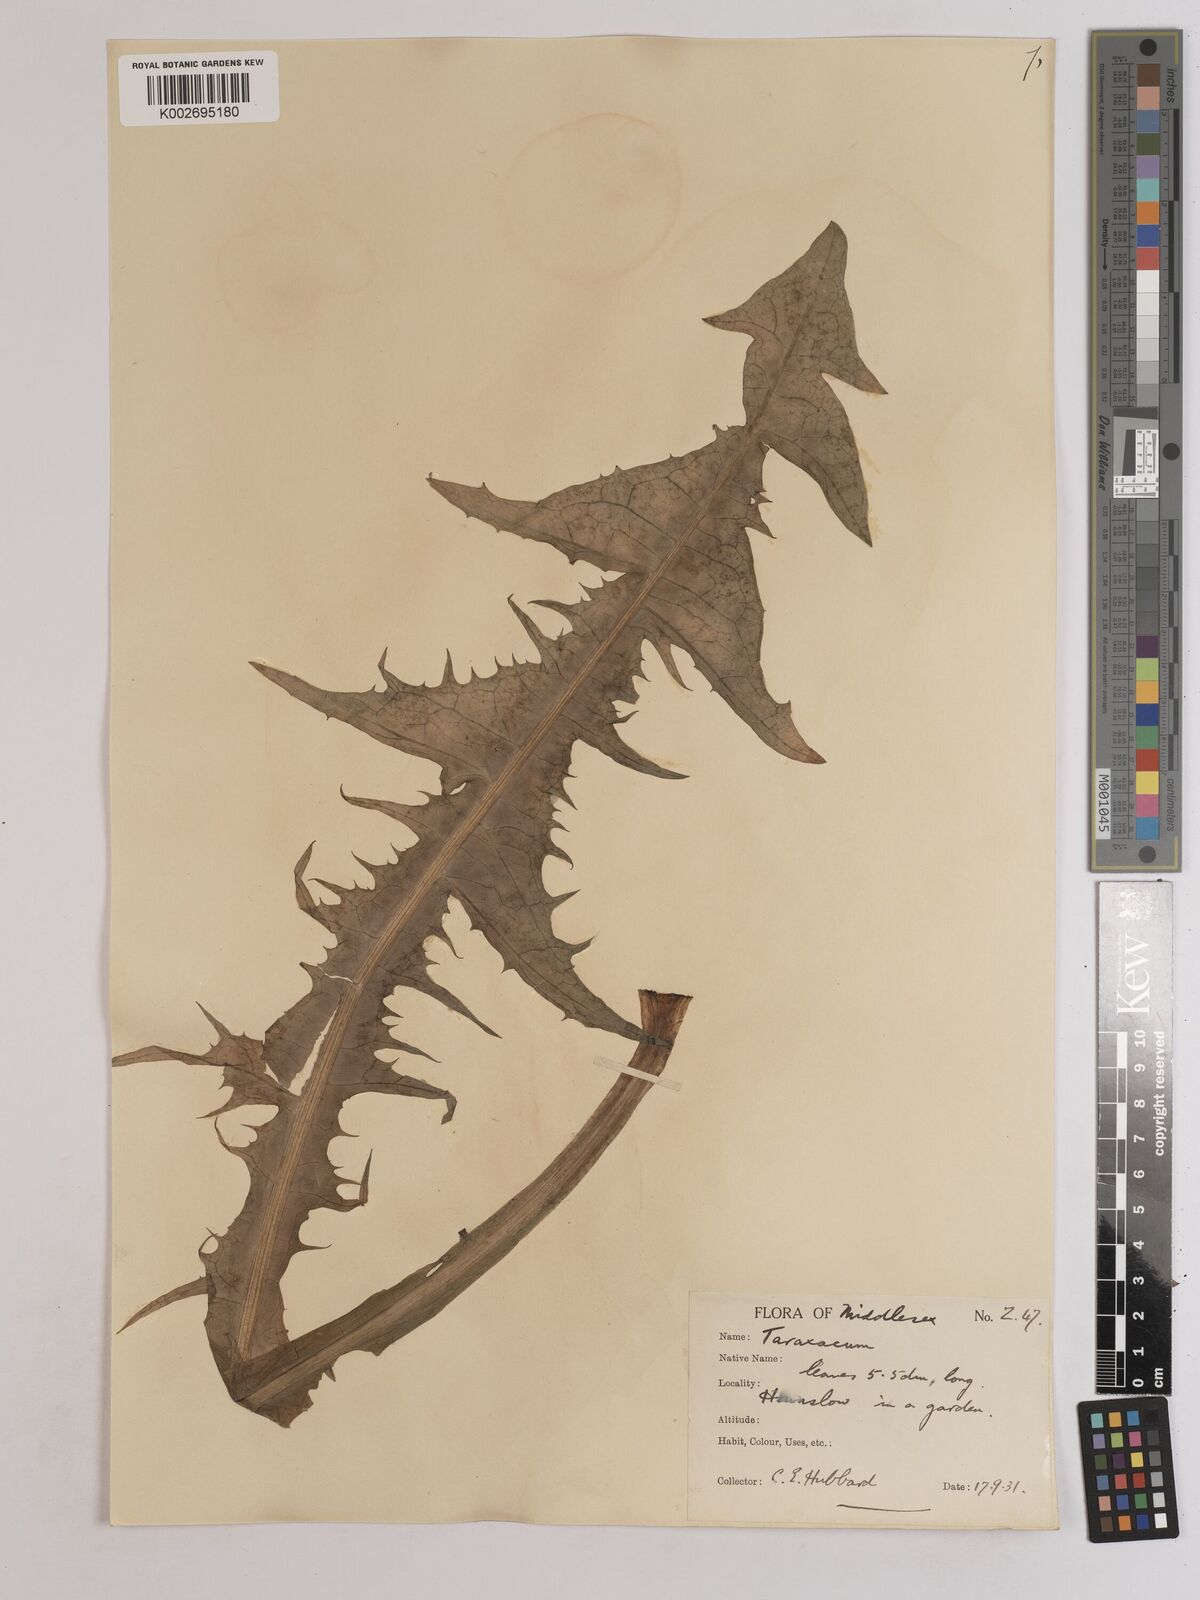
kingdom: Plantae
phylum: Tracheophyta
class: Magnoliopsida
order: Asterales
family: Asteraceae
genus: Taraxacum
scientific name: Taraxacum officinale
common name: Common dandelion
